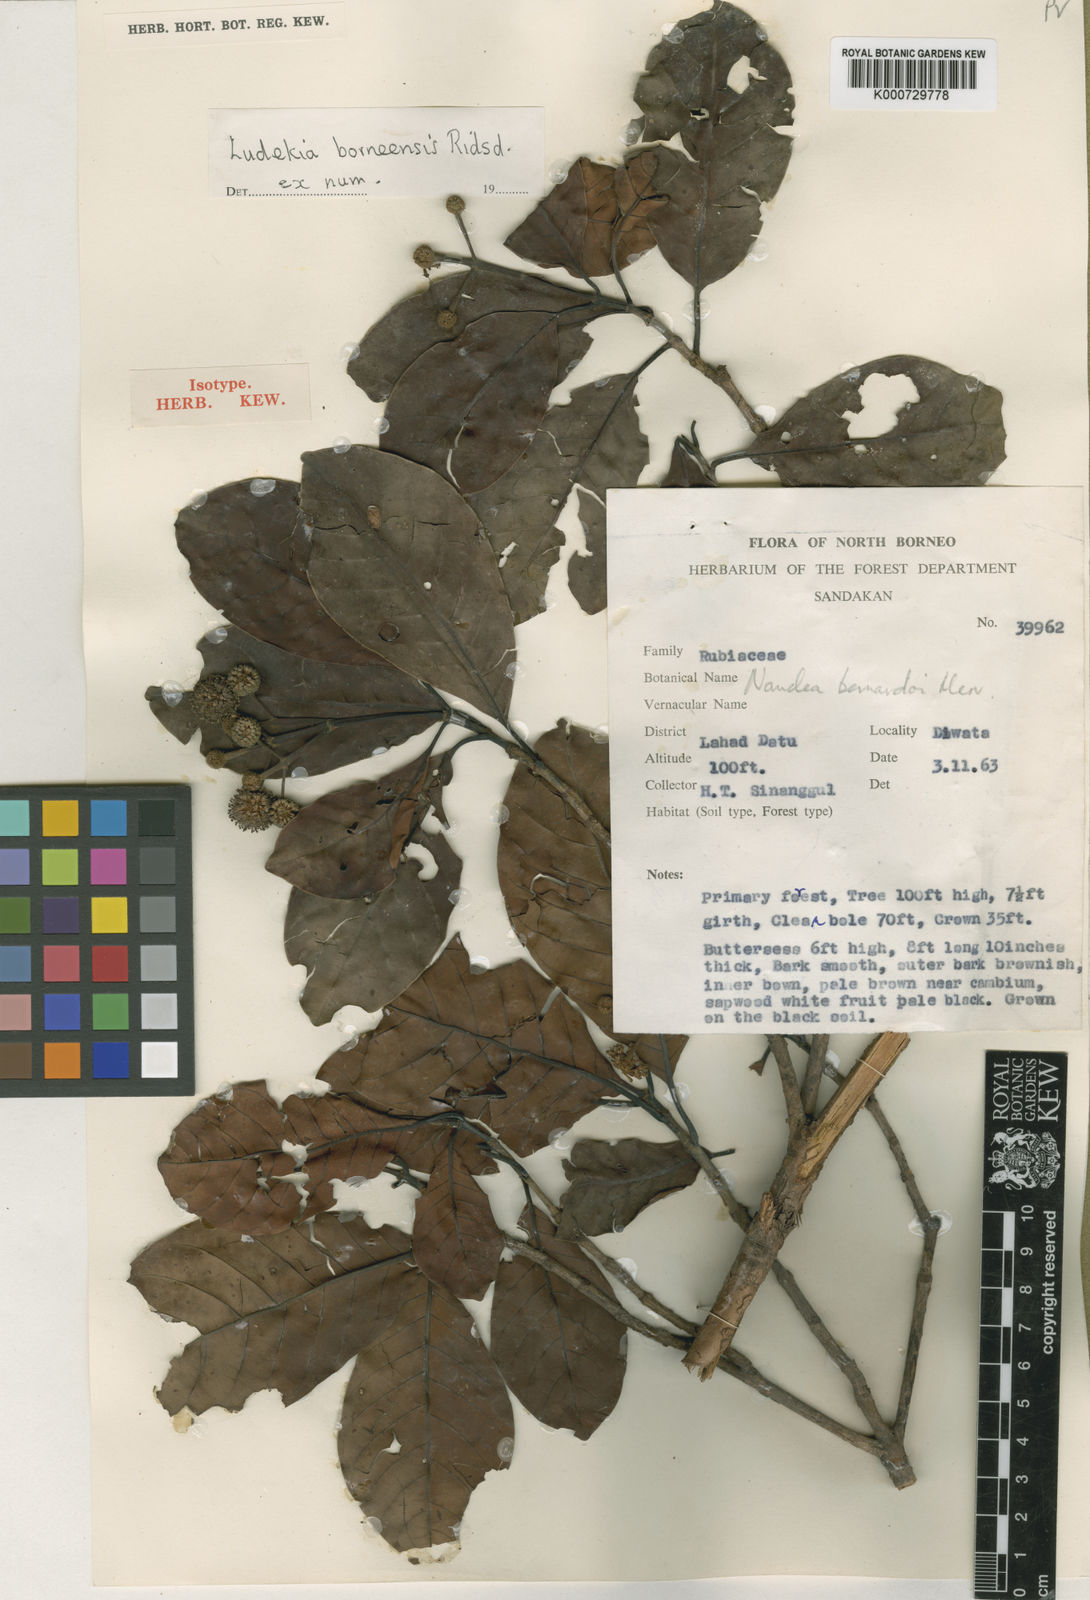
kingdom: Plantae
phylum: Tracheophyta
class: Magnoliopsida
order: Gentianales
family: Rubiaceae
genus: Ludekia
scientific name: Ludekia borneensis
